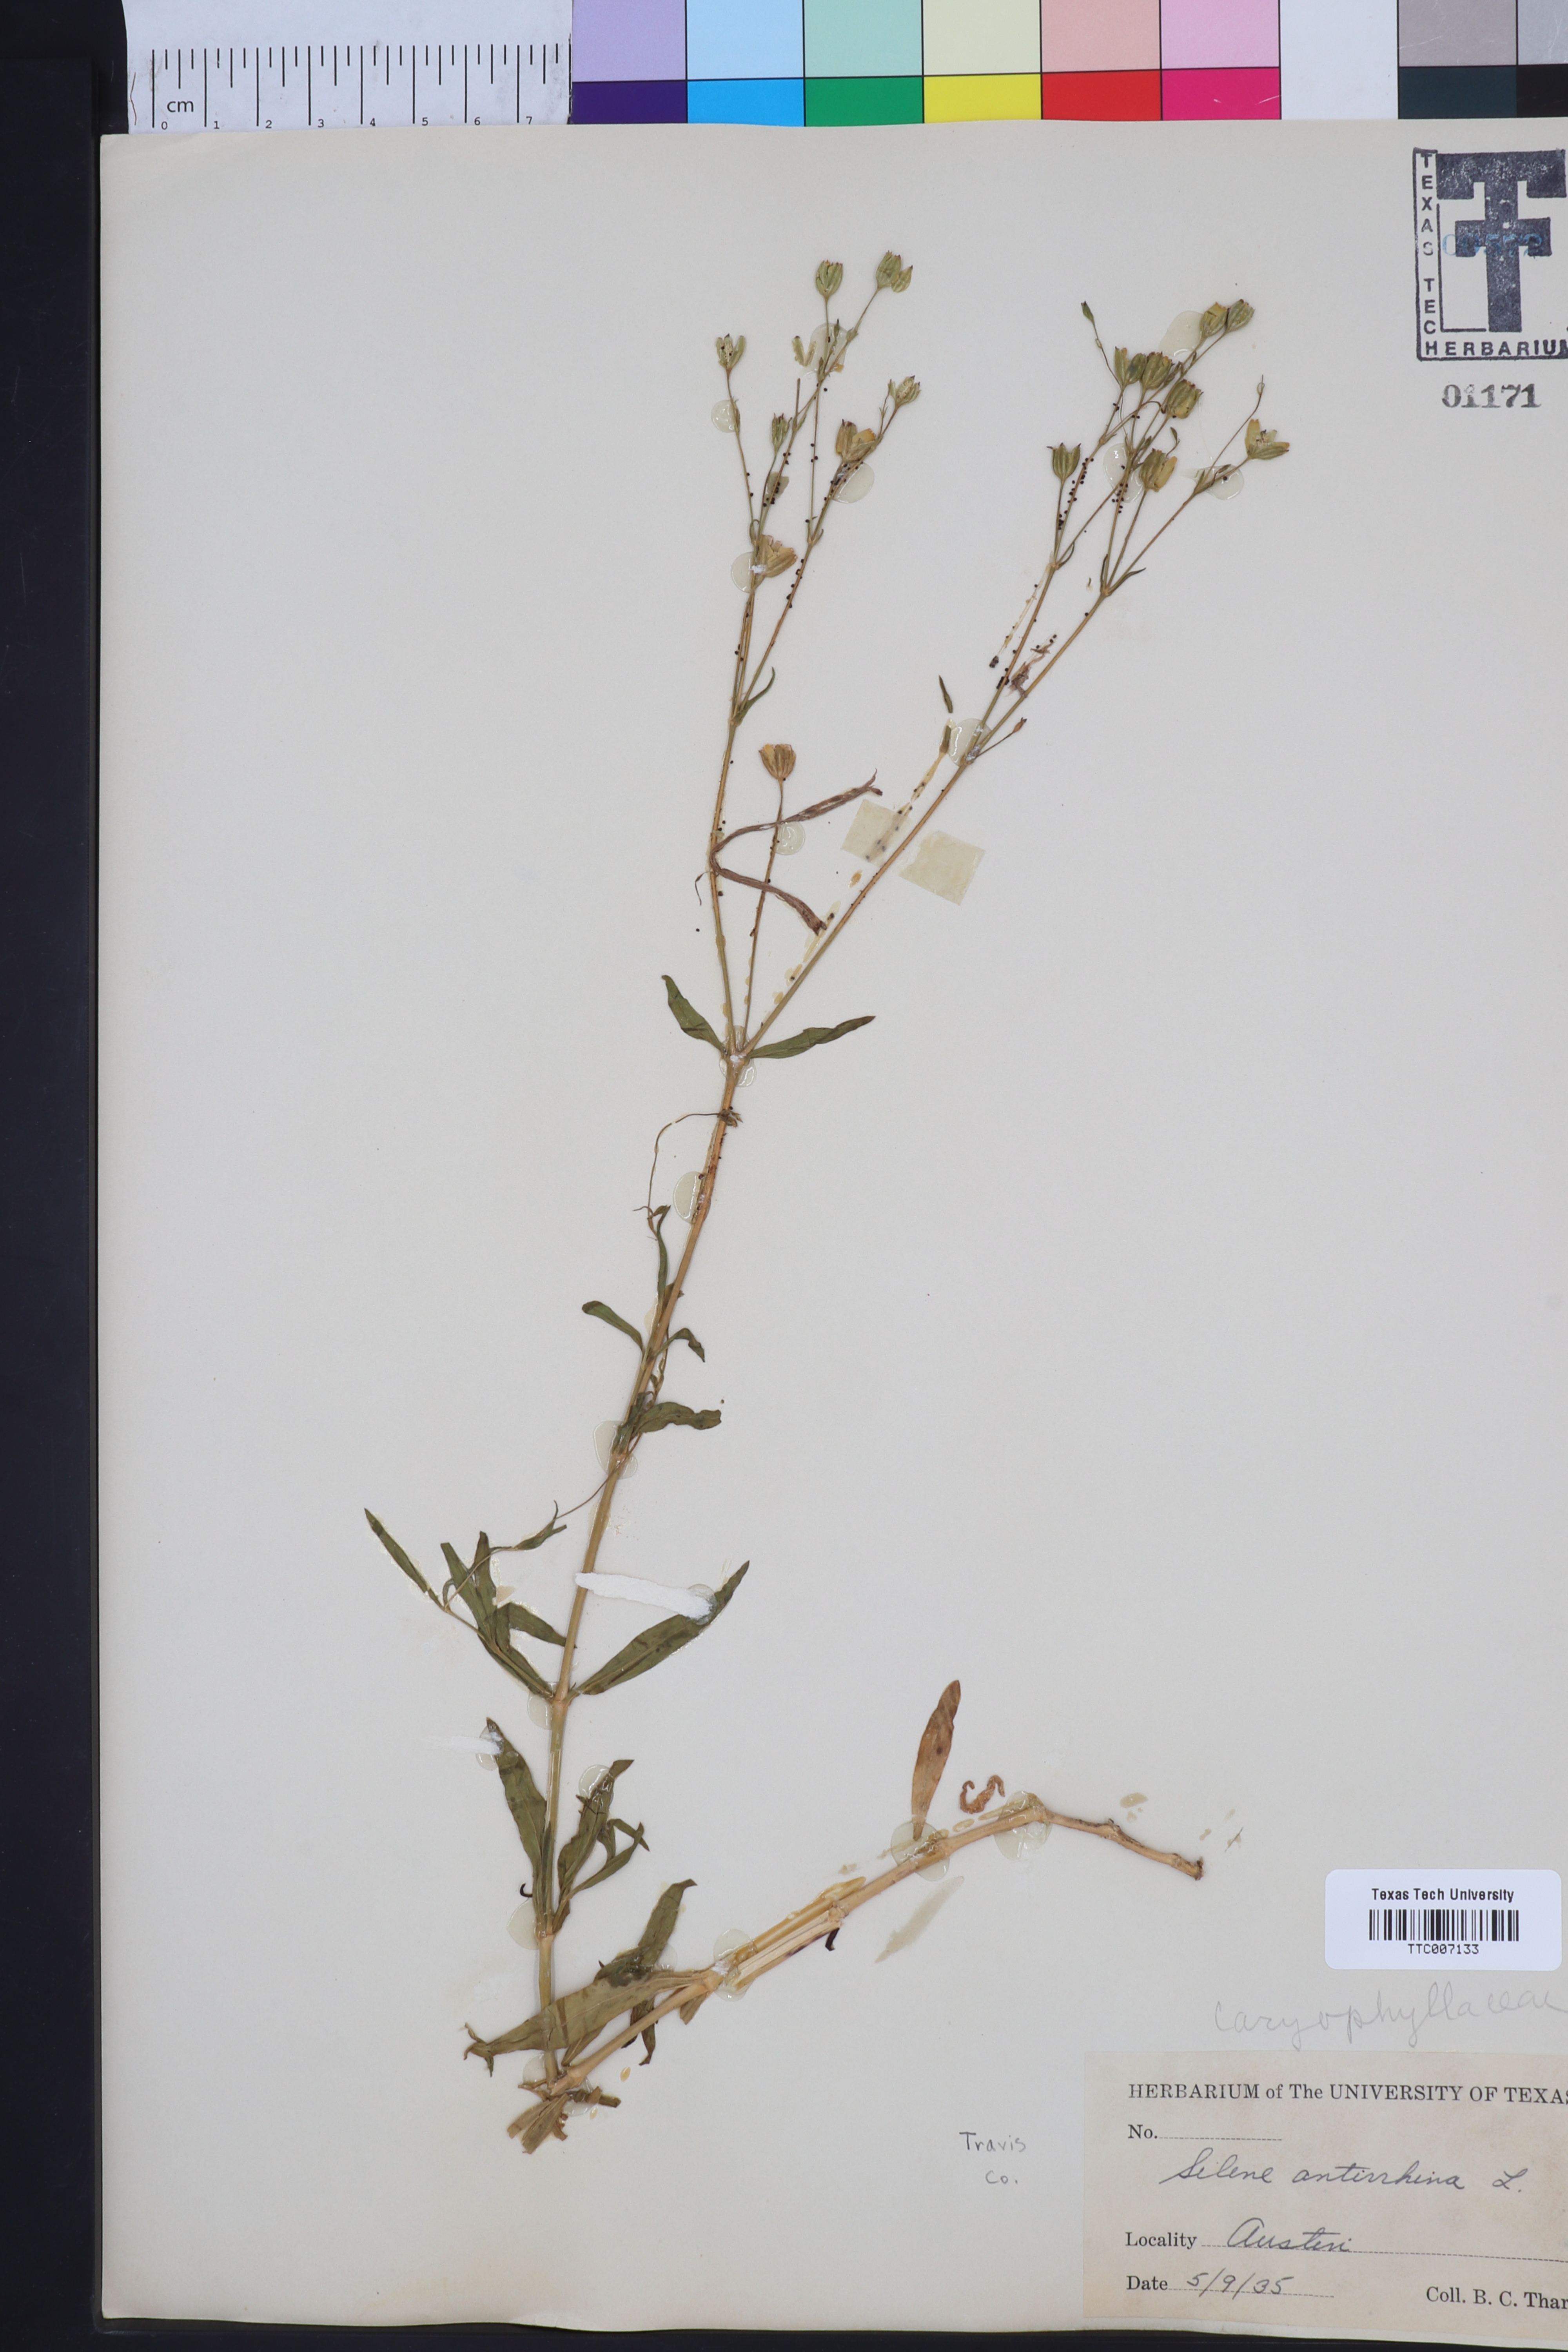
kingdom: Plantae
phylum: Tracheophyta
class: Magnoliopsida
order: Caryophyllales
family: Caryophyllaceae
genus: Silene
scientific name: Silene antirrhina
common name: Sleepy catchfly
